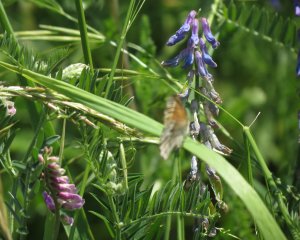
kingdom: Animalia
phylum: Arthropoda
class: Insecta
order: Lepidoptera
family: Nymphalidae
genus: Coenonympha
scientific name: Coenonympha tullia
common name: Large Heath
